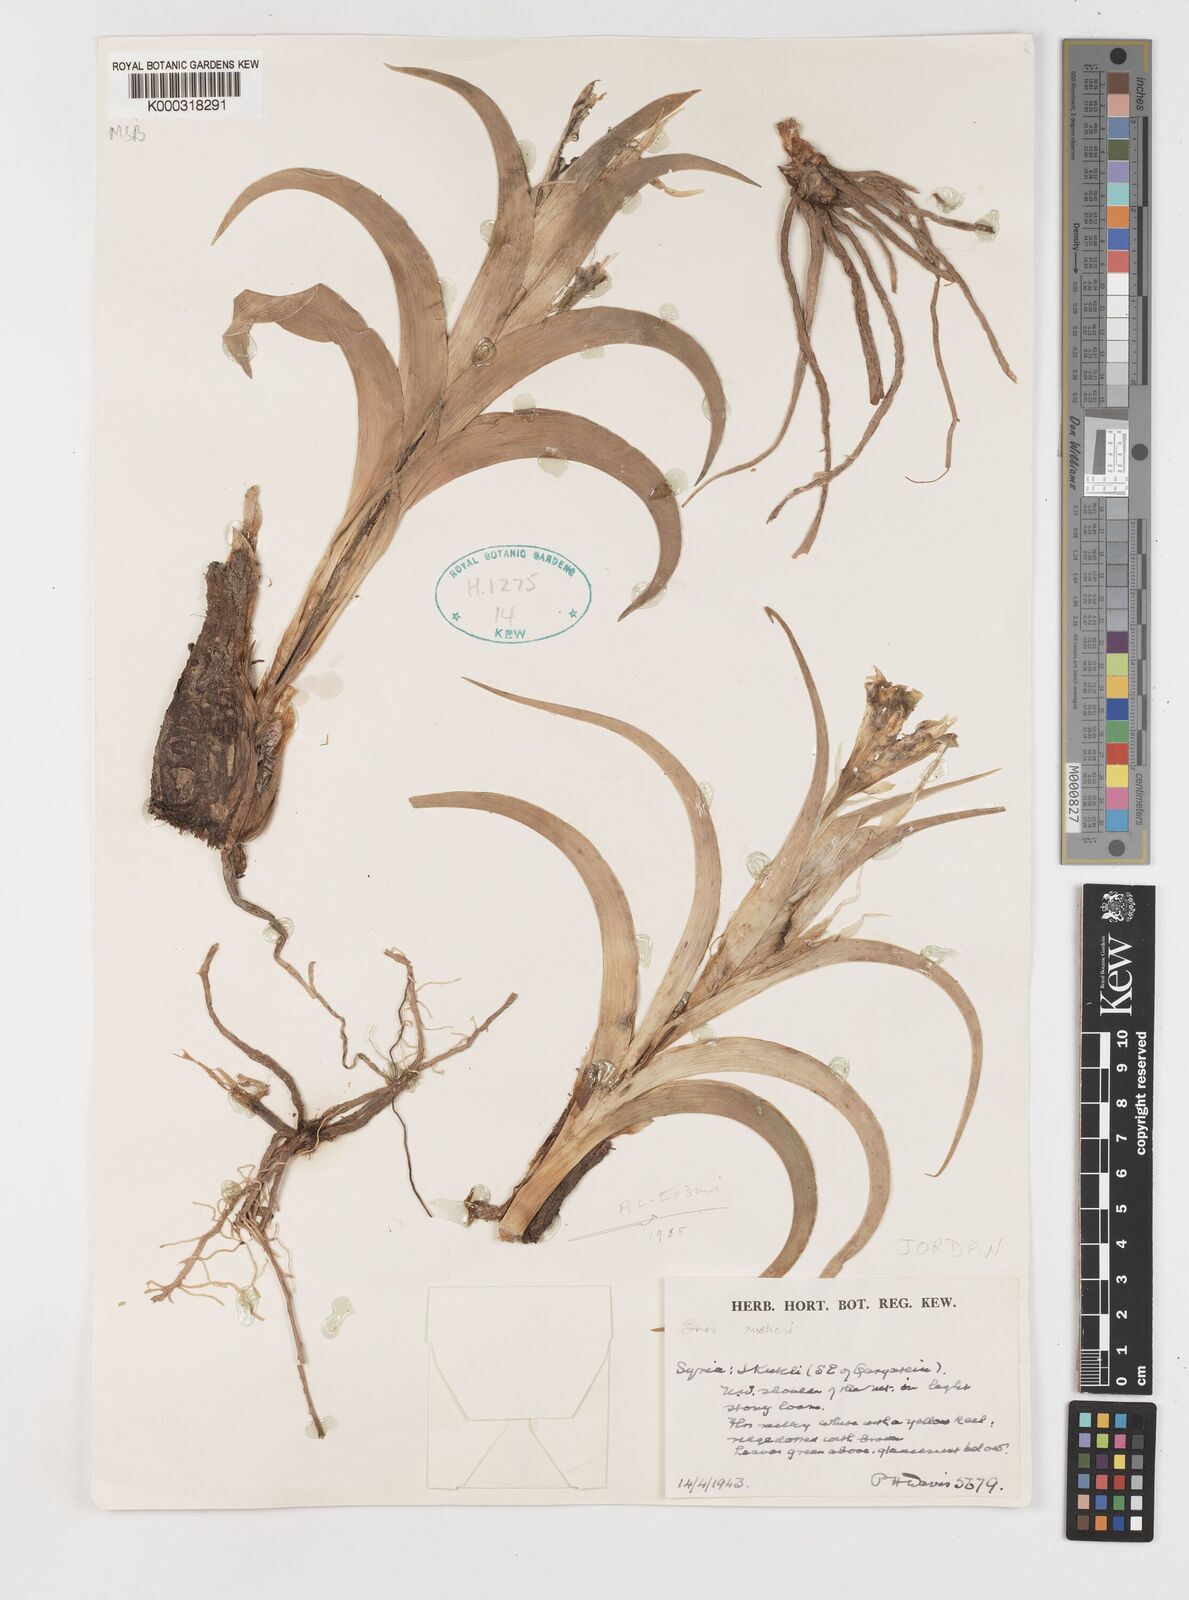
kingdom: Plantae
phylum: Tracheophyta
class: Liliopsida
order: Asparagales
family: Iridaceae
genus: Iris
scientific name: Iris aucheri
